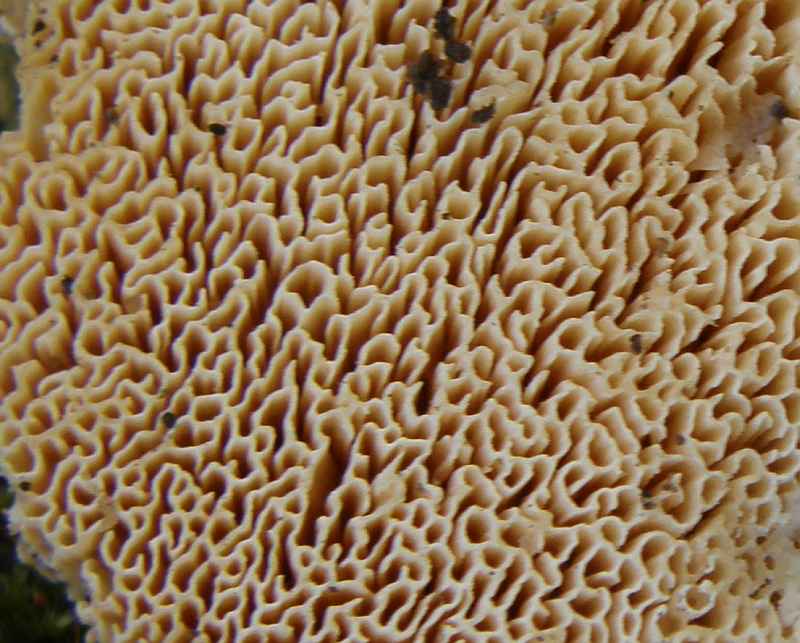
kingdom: Fungi
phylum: Basidiomycota
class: Agaricomycetes
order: Polyporales
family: Cerrenaceae
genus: Pseudospongipellis
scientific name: Pseudospongipellis delectans
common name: labyrint-skumporesvamp
